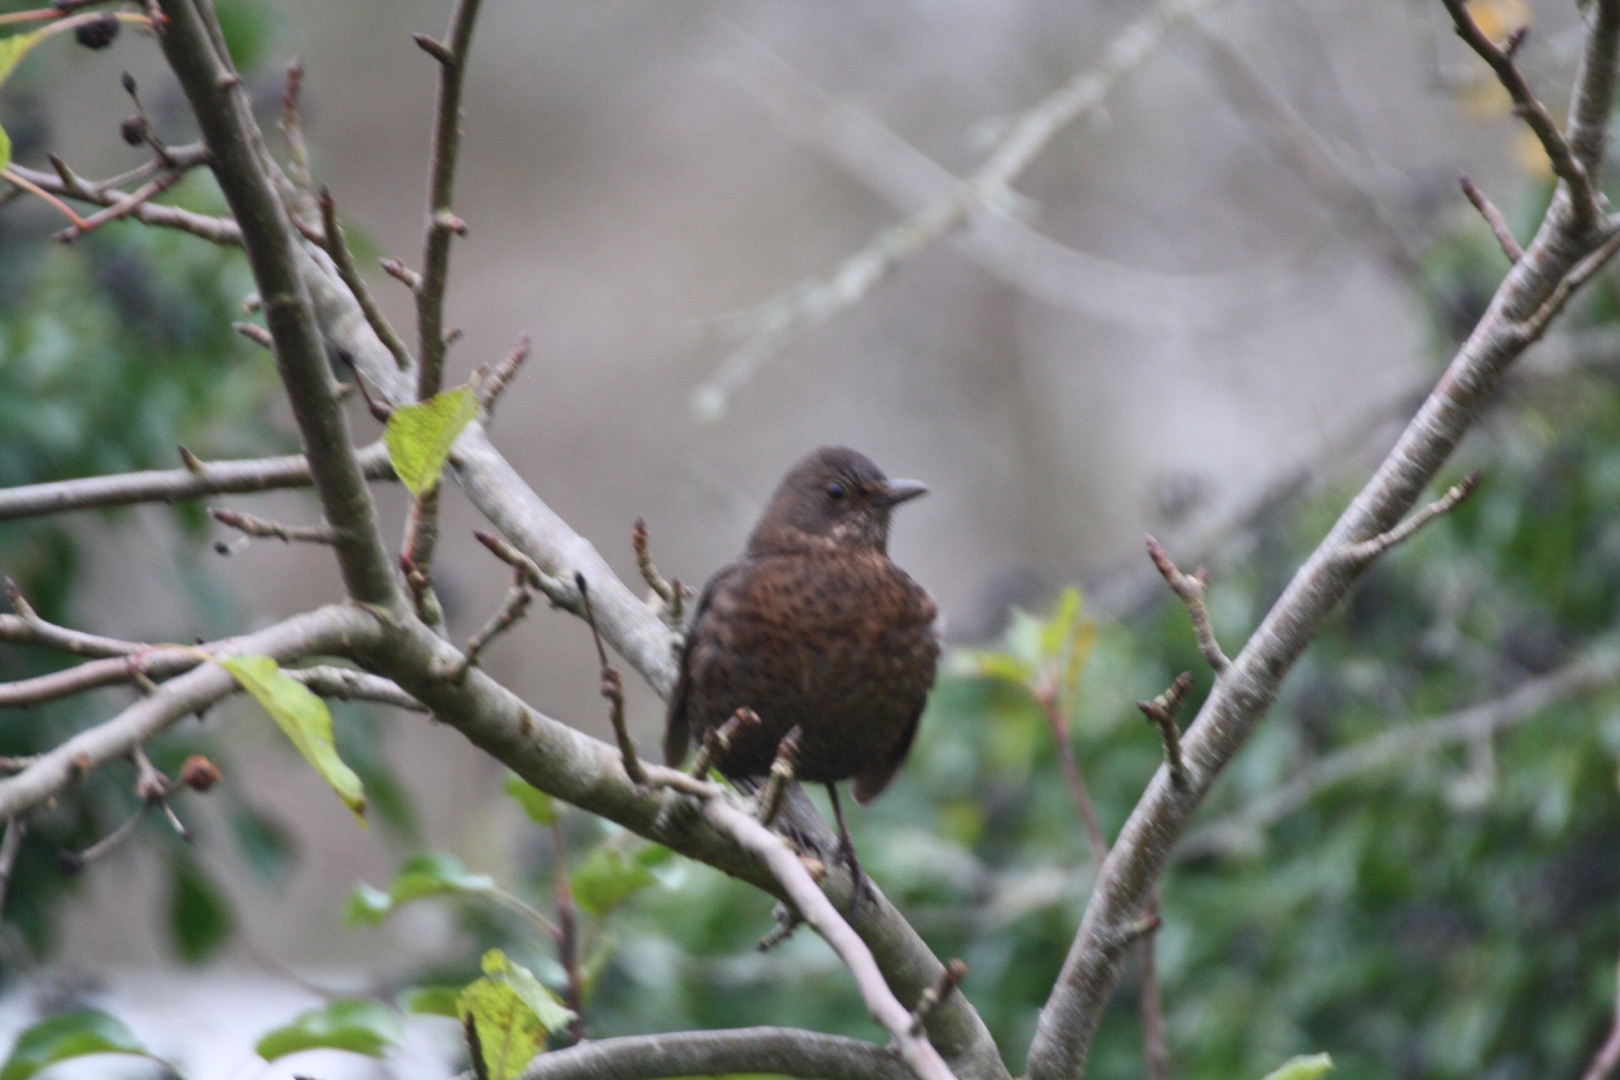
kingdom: Animalia
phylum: Chordata
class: Aves
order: Passeriformes
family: Turdidae
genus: Turdus
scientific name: Turdus merula
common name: Solsort
